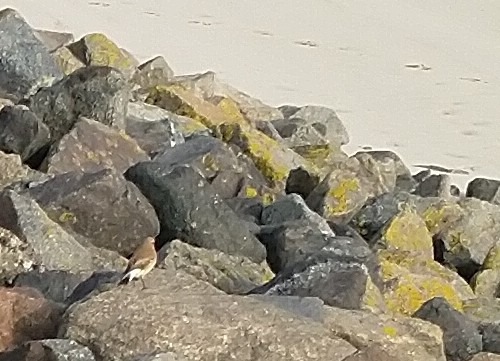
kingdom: Animalia
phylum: Chordata
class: Aves
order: Passeriformes
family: Muscicapidae
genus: Oenanthe
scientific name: Oenanthe oenanthe
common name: Stenpikker
